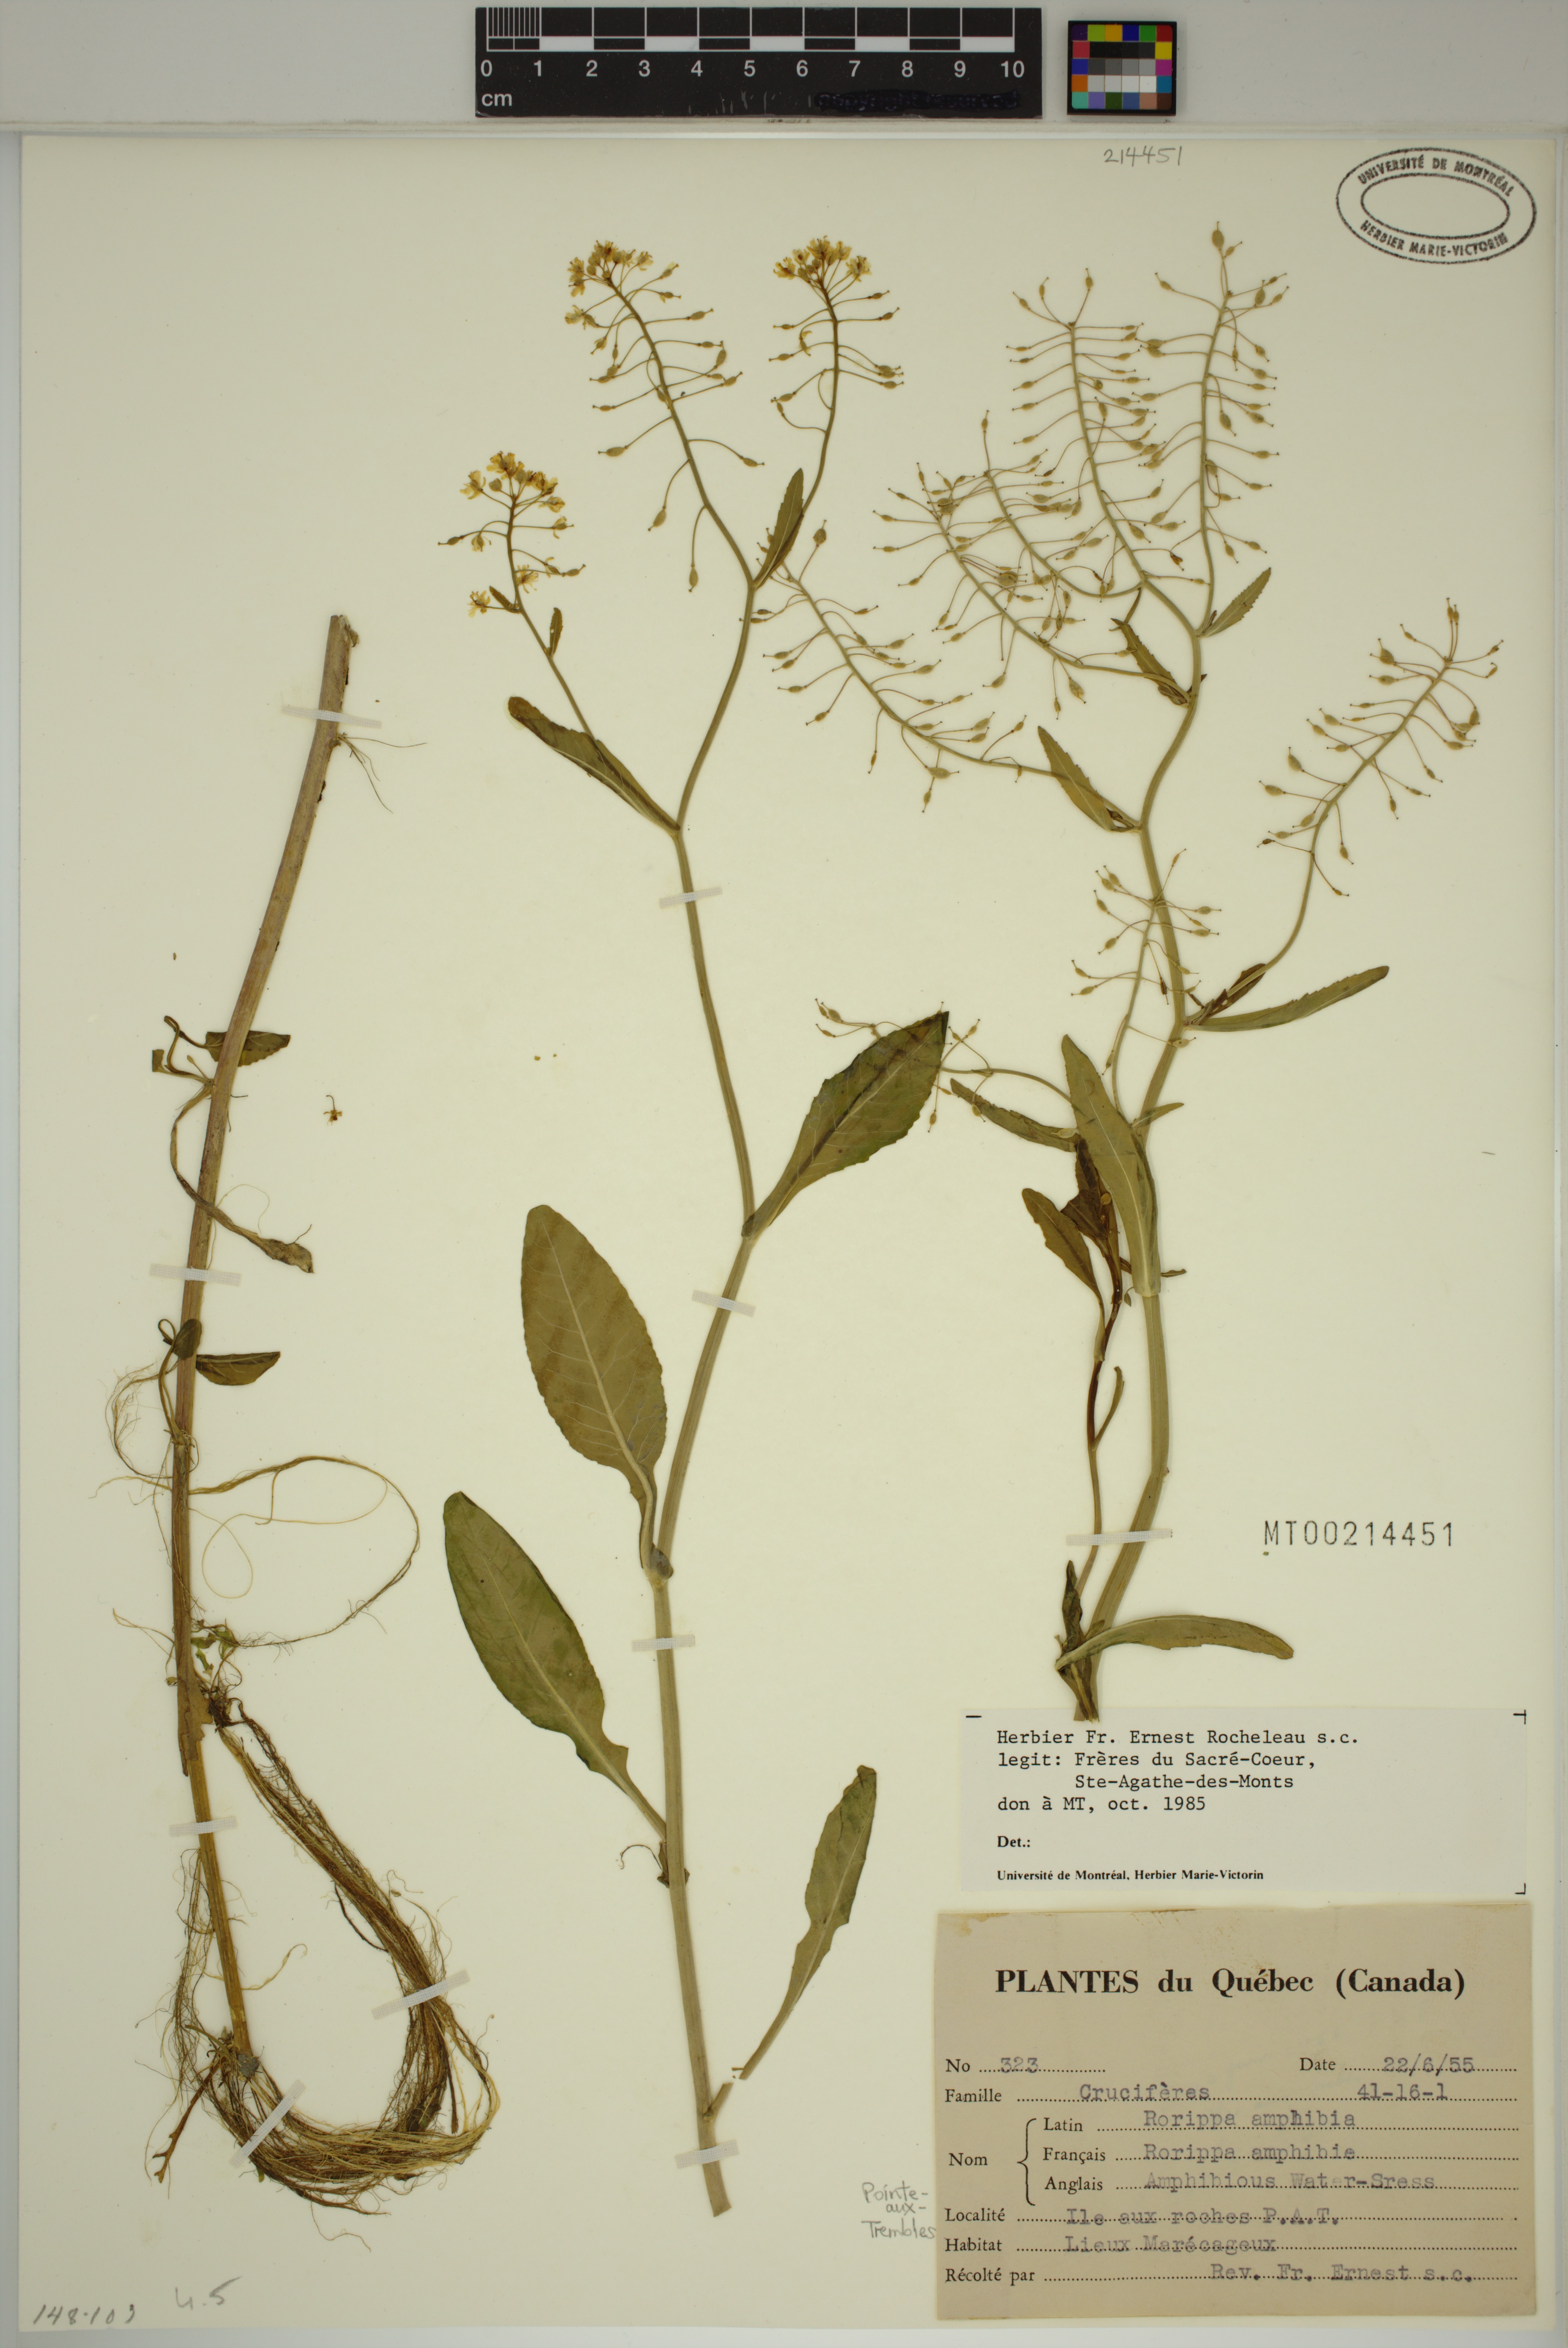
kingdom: Plantae
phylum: Tracheophyta
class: Magnoliopsida
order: Brassicales
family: Brassicaceae
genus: Rorippa
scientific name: Rorippa amphibia
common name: Great yellow-cress
